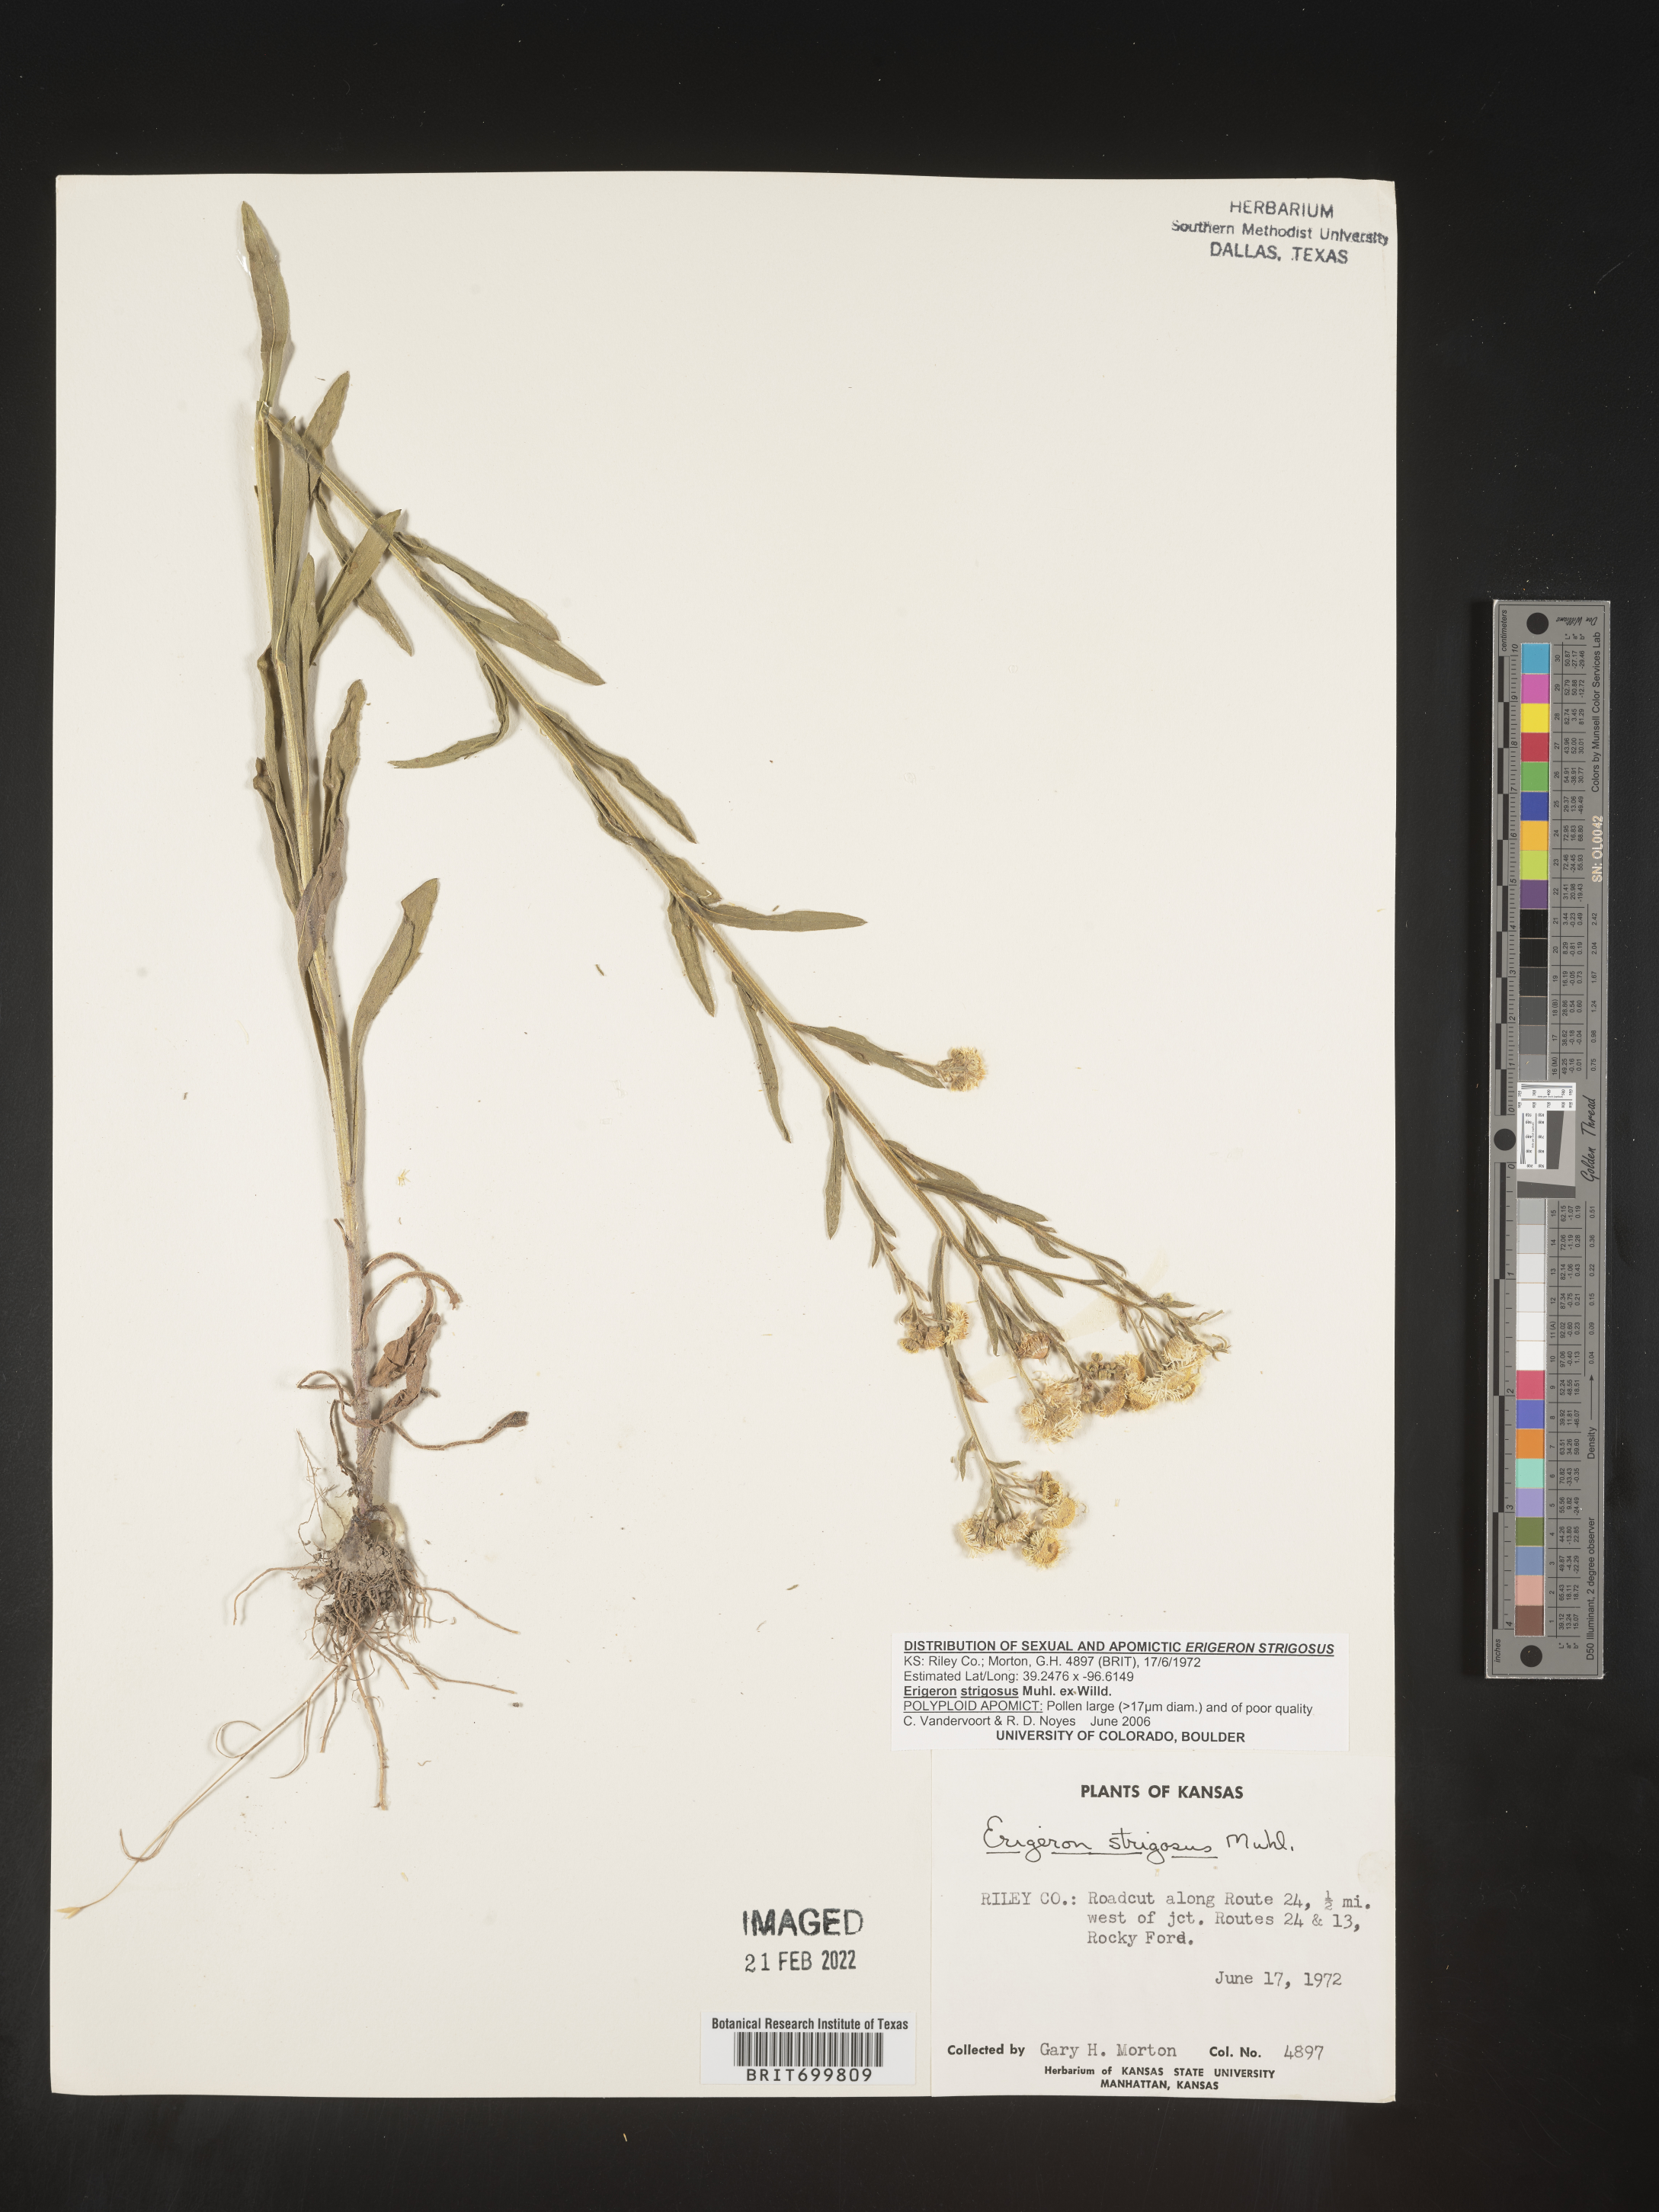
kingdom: Plantae
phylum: Tracheophyta
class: Magnoliopsida
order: Asterales
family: Asteraceae
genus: Erigeron
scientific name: Erigeron strigosus
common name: Common eastern fleabane
